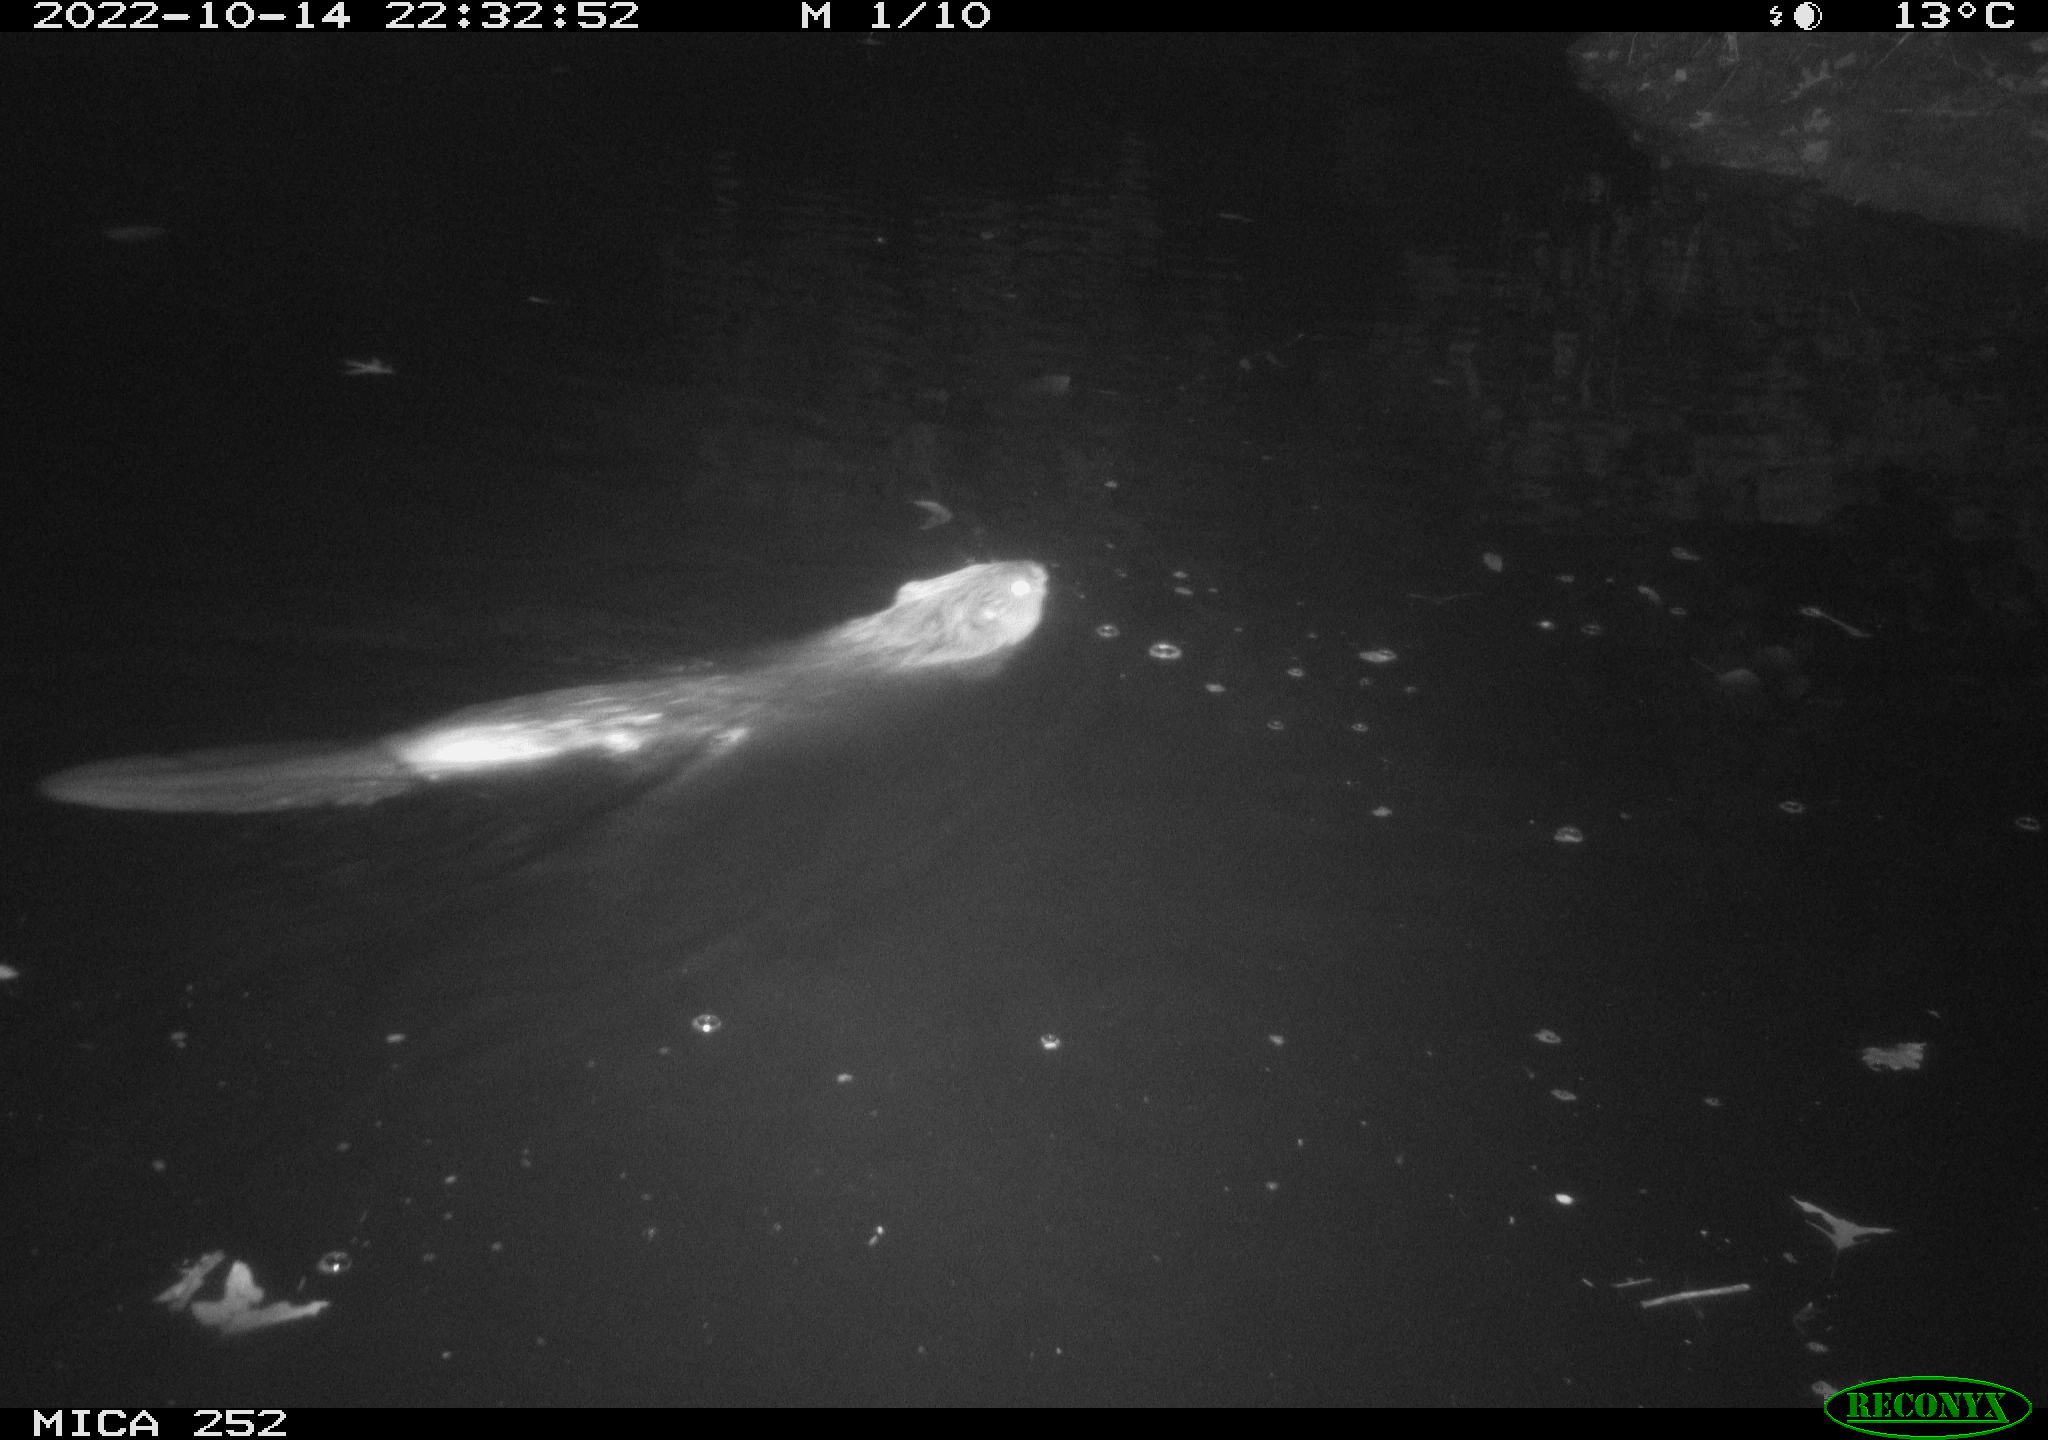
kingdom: Animalia
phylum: Chordata
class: Mammalia
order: Rodentia
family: Castoridae
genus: Castor
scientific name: Castor fiber
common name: Eurasian beaver
